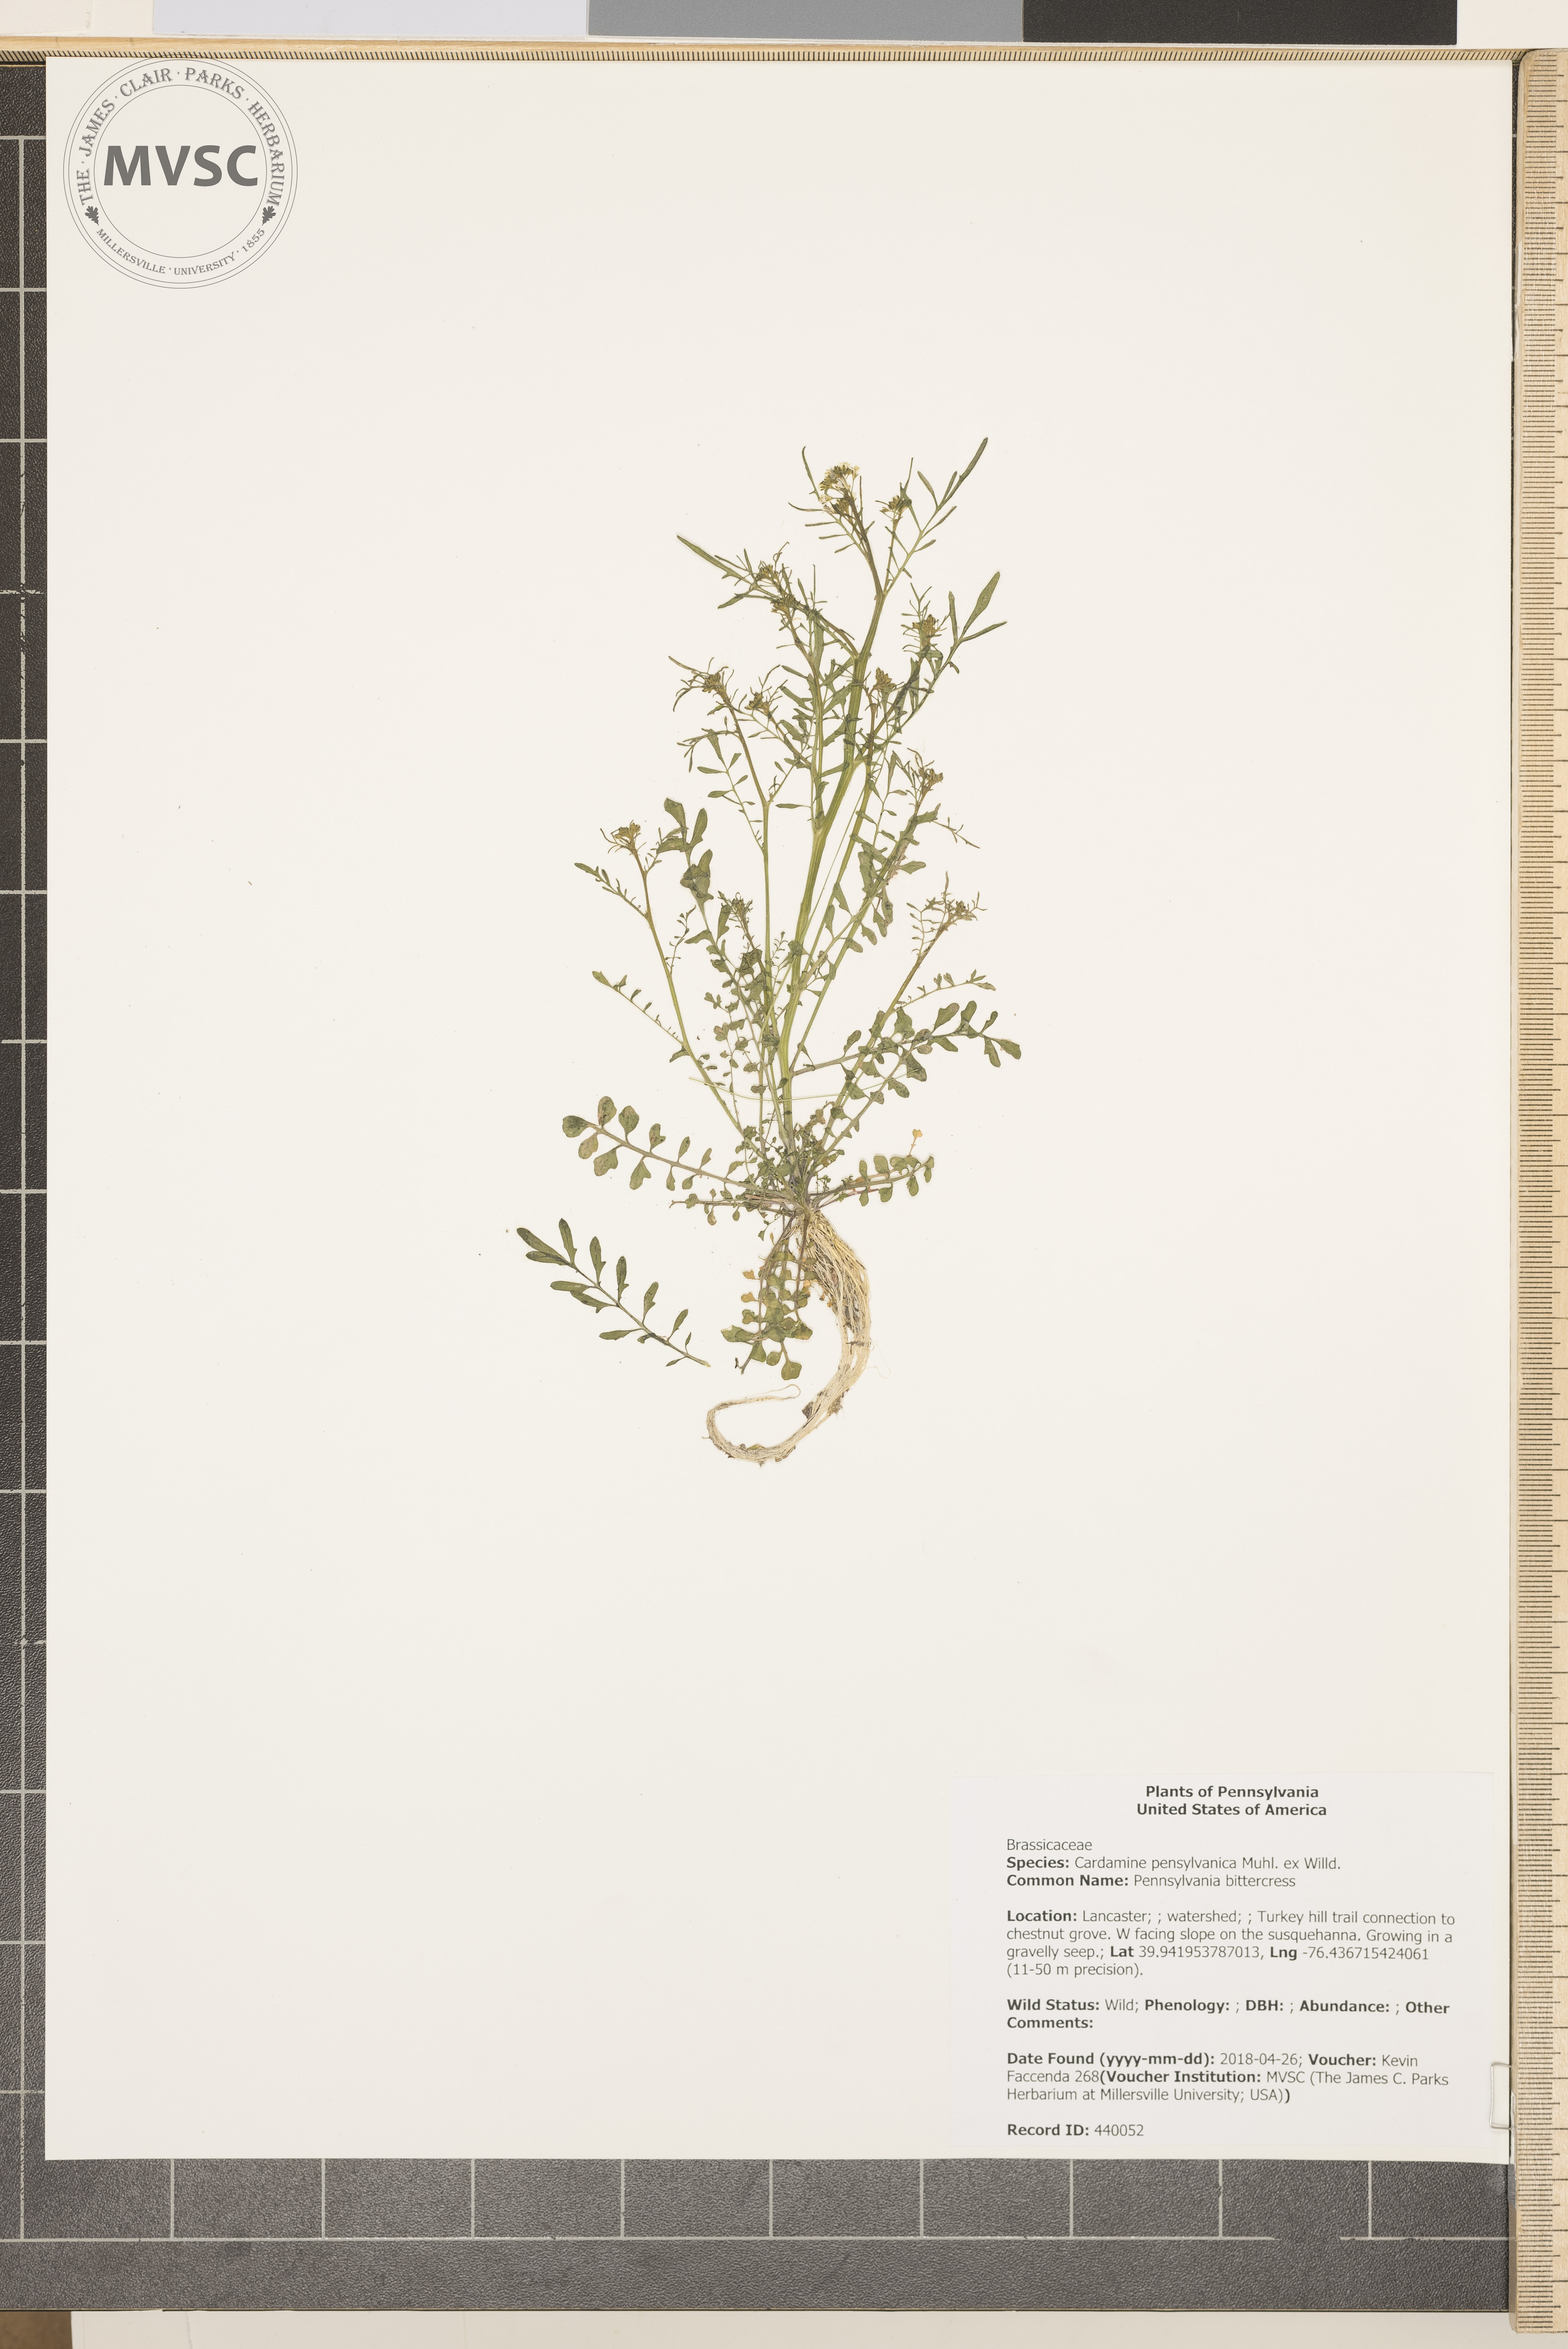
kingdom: Plantae
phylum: Tracheophyta
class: Magnoliopsida
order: Brassicales
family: Brassicaceae
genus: Cardamine
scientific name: Cardamine pensylvanica
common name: Pennsylvania bittercress
